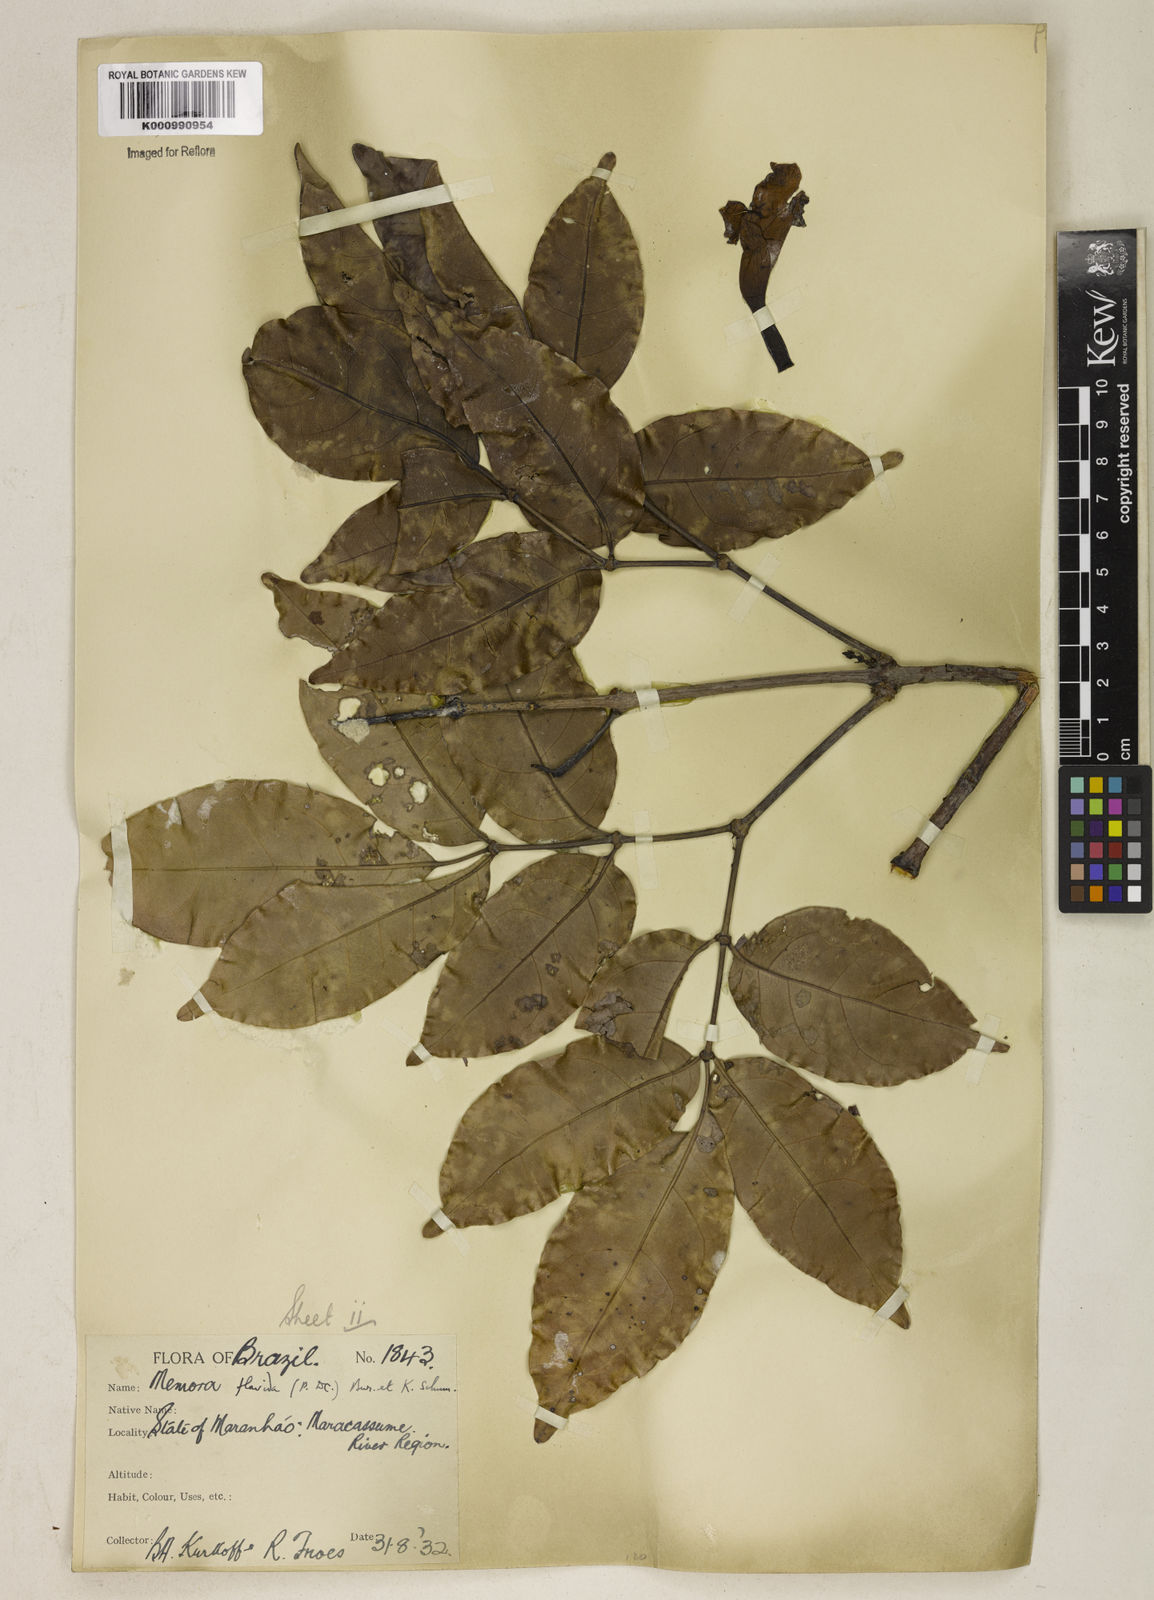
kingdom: Plantae
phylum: Tracheophyta
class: Magnoliopsida
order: Lamiales
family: Bignoniaceae
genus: Adenocalymma
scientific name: Adenocalymma neoflavidum
